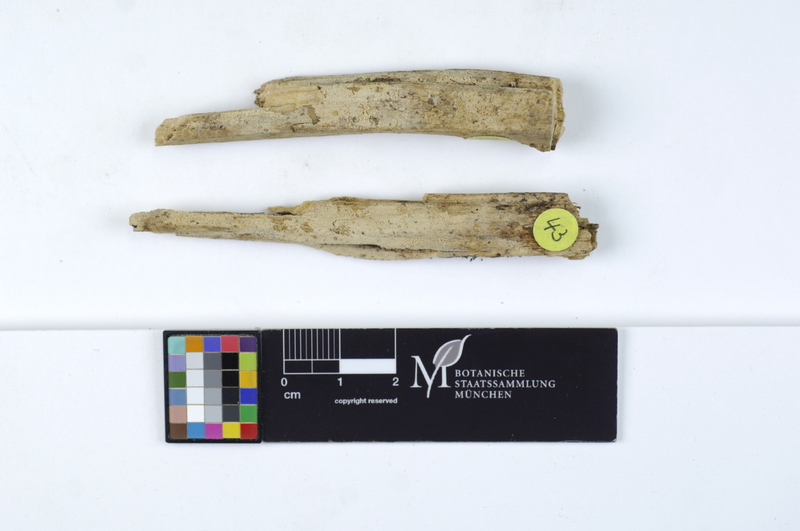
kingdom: Plantae
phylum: Tracheophyta
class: Magnoliopsida
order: Rosales
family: Rosaceae
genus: Malus
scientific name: Malus
